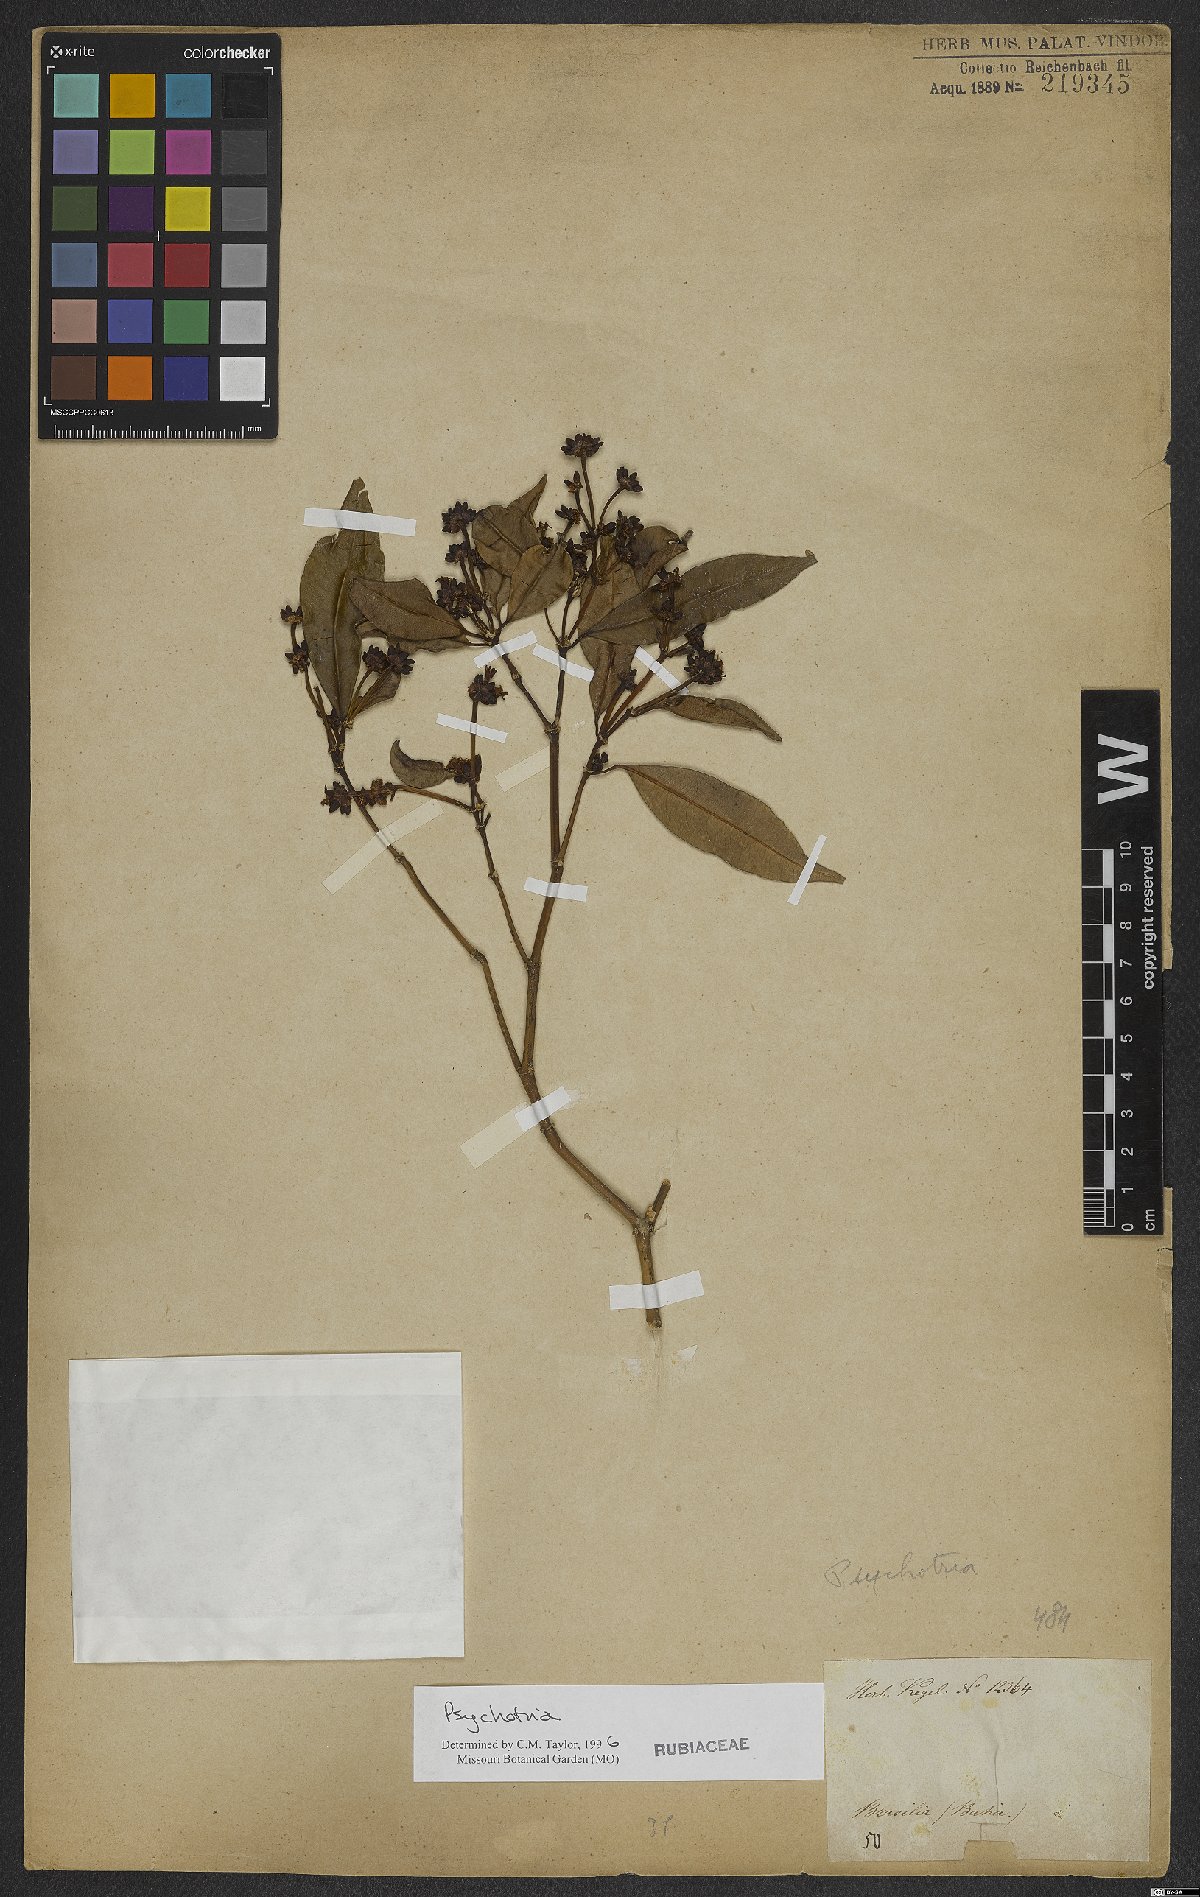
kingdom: Plantae
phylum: Tracheophyta
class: Magnoliopsida
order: Gentianales
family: Rubiaceae
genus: Palicourea
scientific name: Palicourea sessilis
